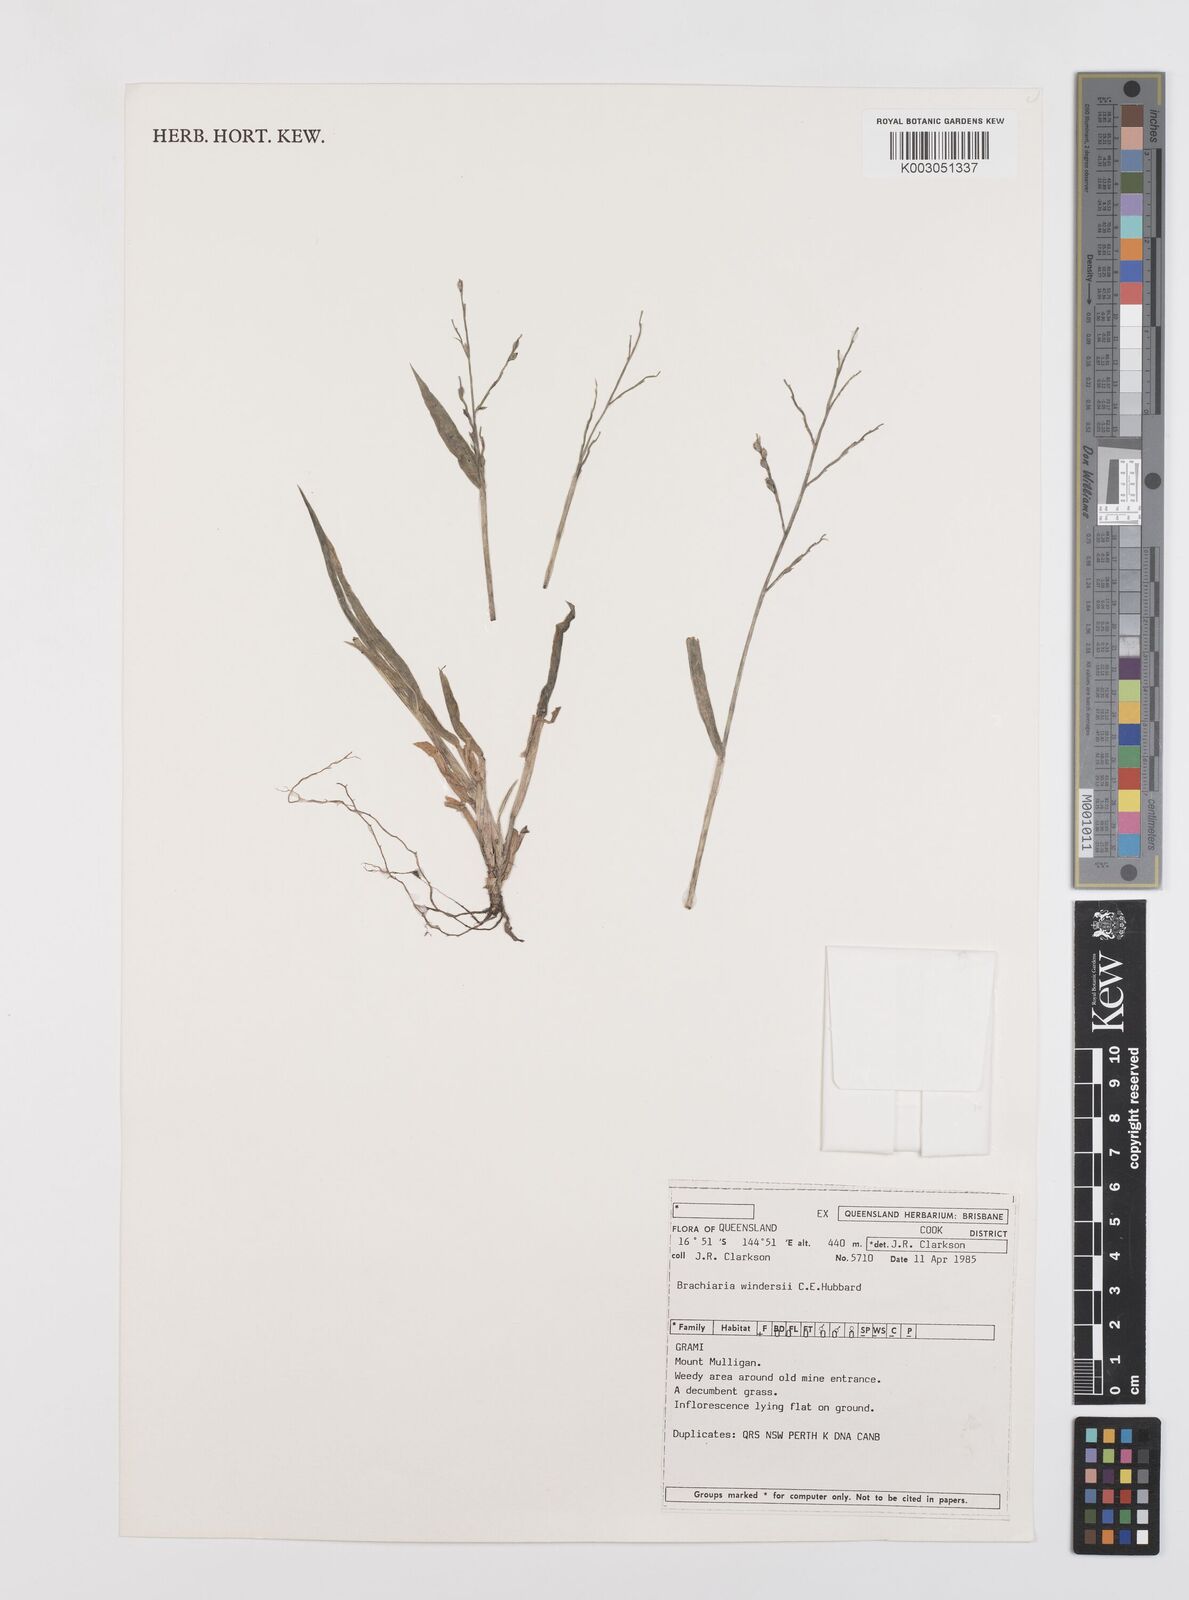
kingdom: Plantae
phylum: Tracheophyta
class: Liliopsida
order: Poales
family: Poaceae
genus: Urochloa
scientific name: Urochloa whiteana
